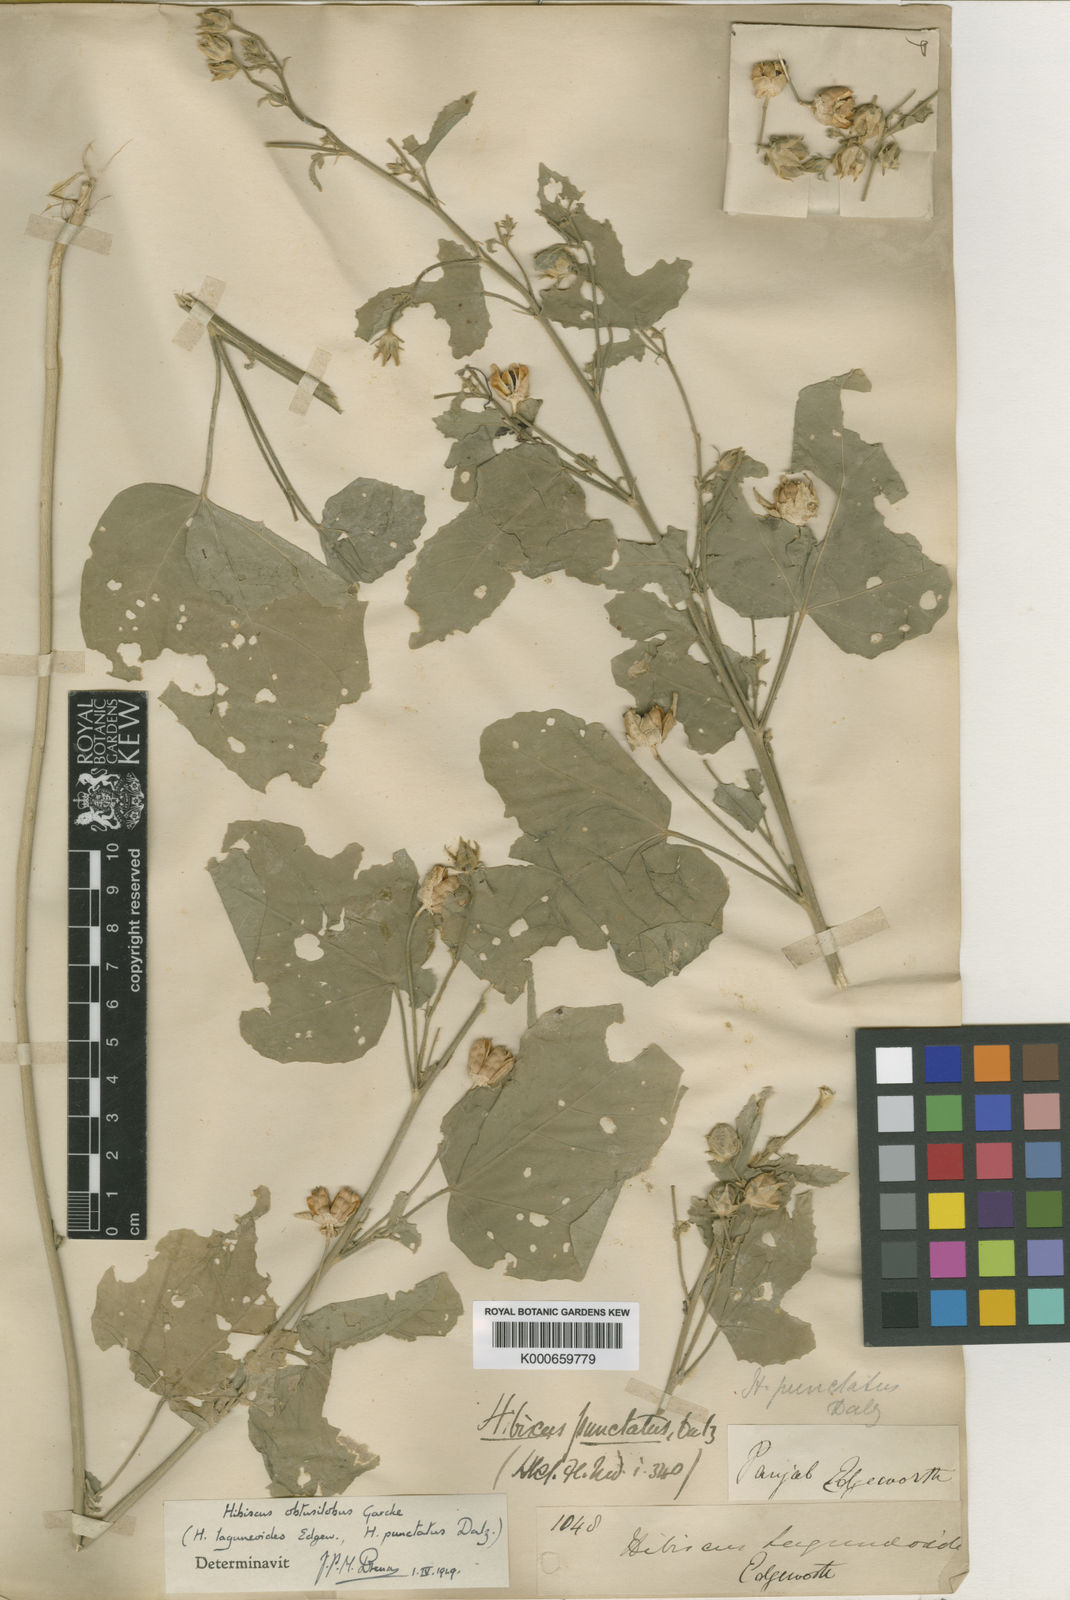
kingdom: Plantae
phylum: Tracheophyta
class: Magnoliopsida
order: Malvales
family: Malvaceae
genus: Hibiscus
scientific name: Hibiscus obtusilobus
